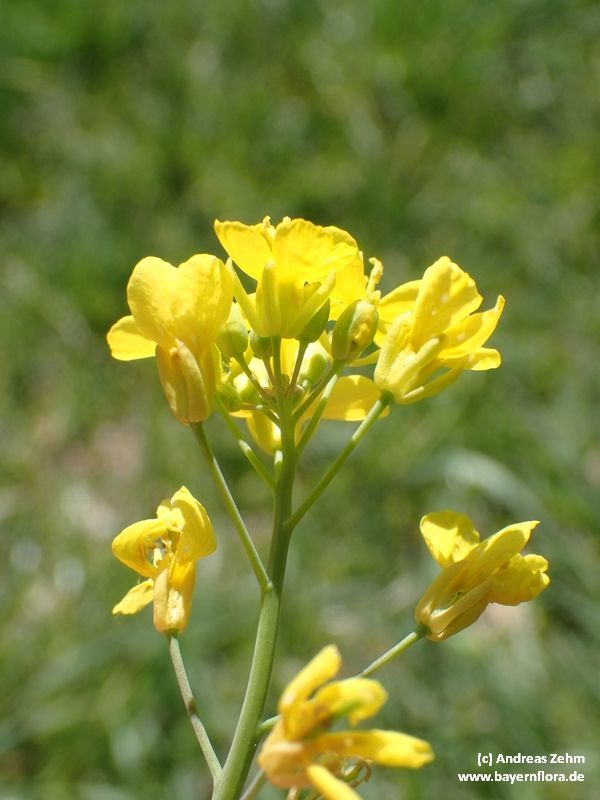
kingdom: Plantae
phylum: Tracheophyta
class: Magnoliopsida
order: Brassicales
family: Brassicaceae
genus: Brassica
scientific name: Brassica napus
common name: Rape
